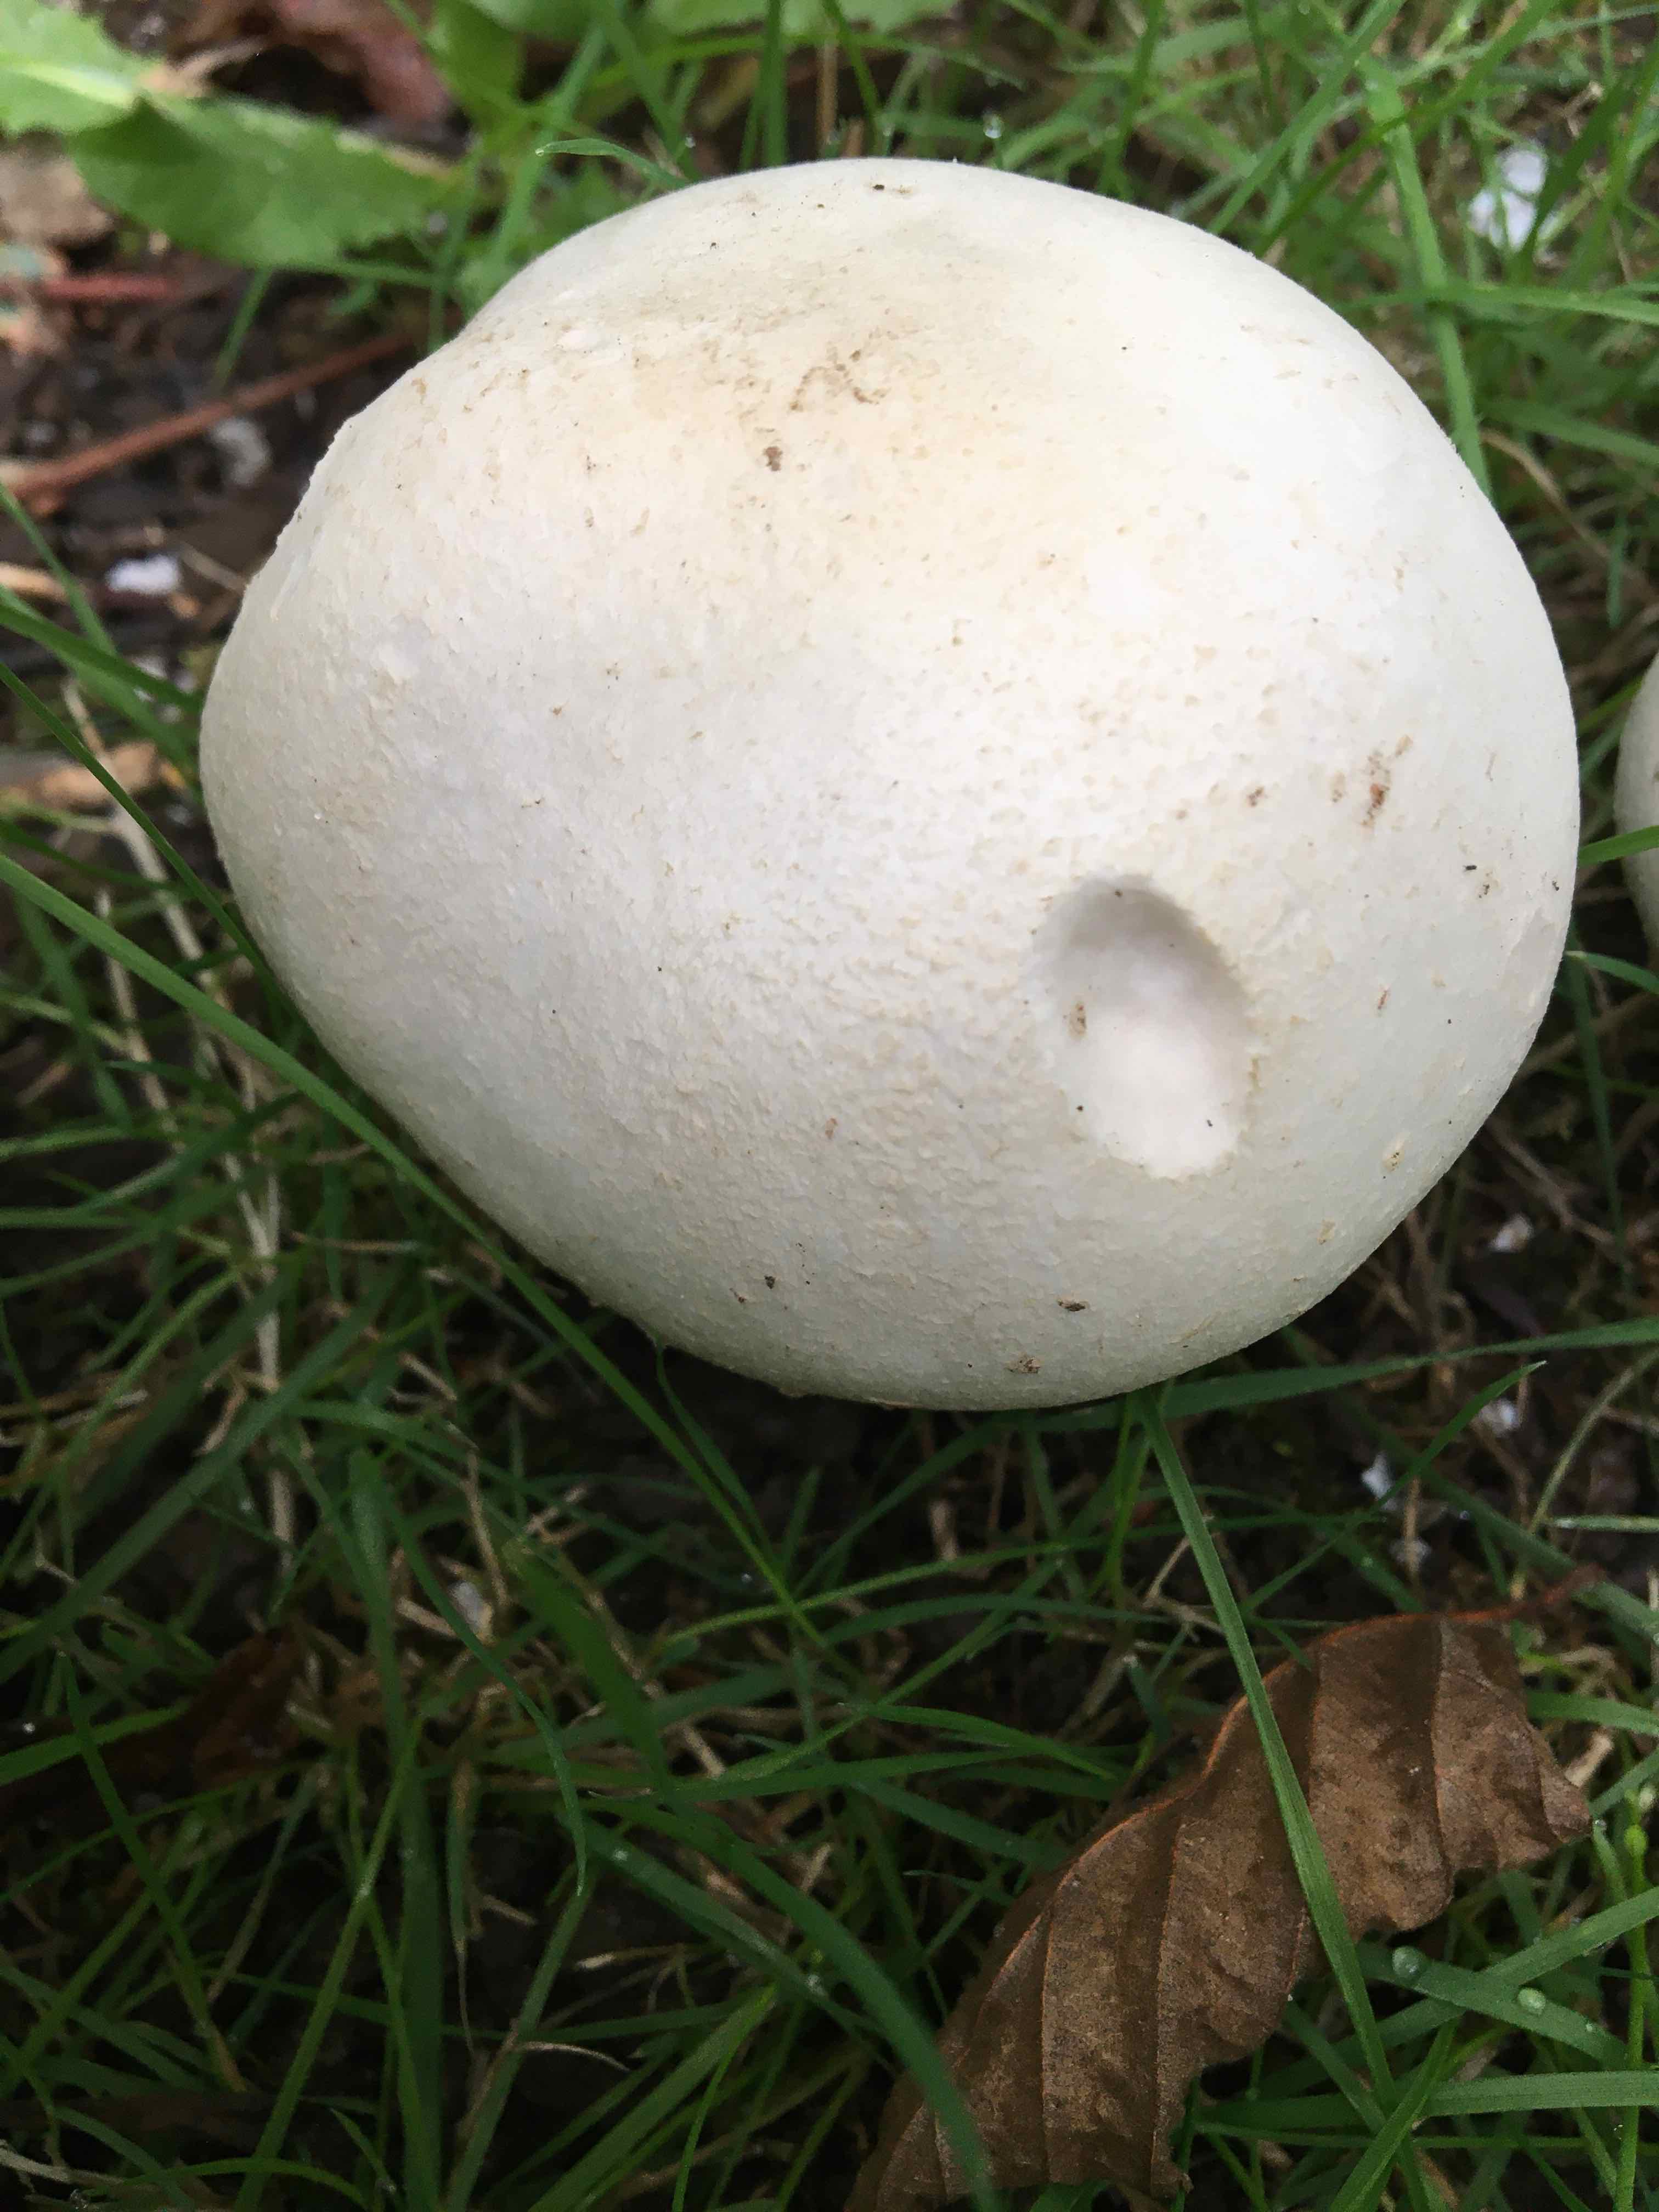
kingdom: Fungi
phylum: Basidiomycota
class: Agaricomycetes
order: Agaricales
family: Agaricaceae
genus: Agaricus
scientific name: Agaricus arvensis
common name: ager-champignon
